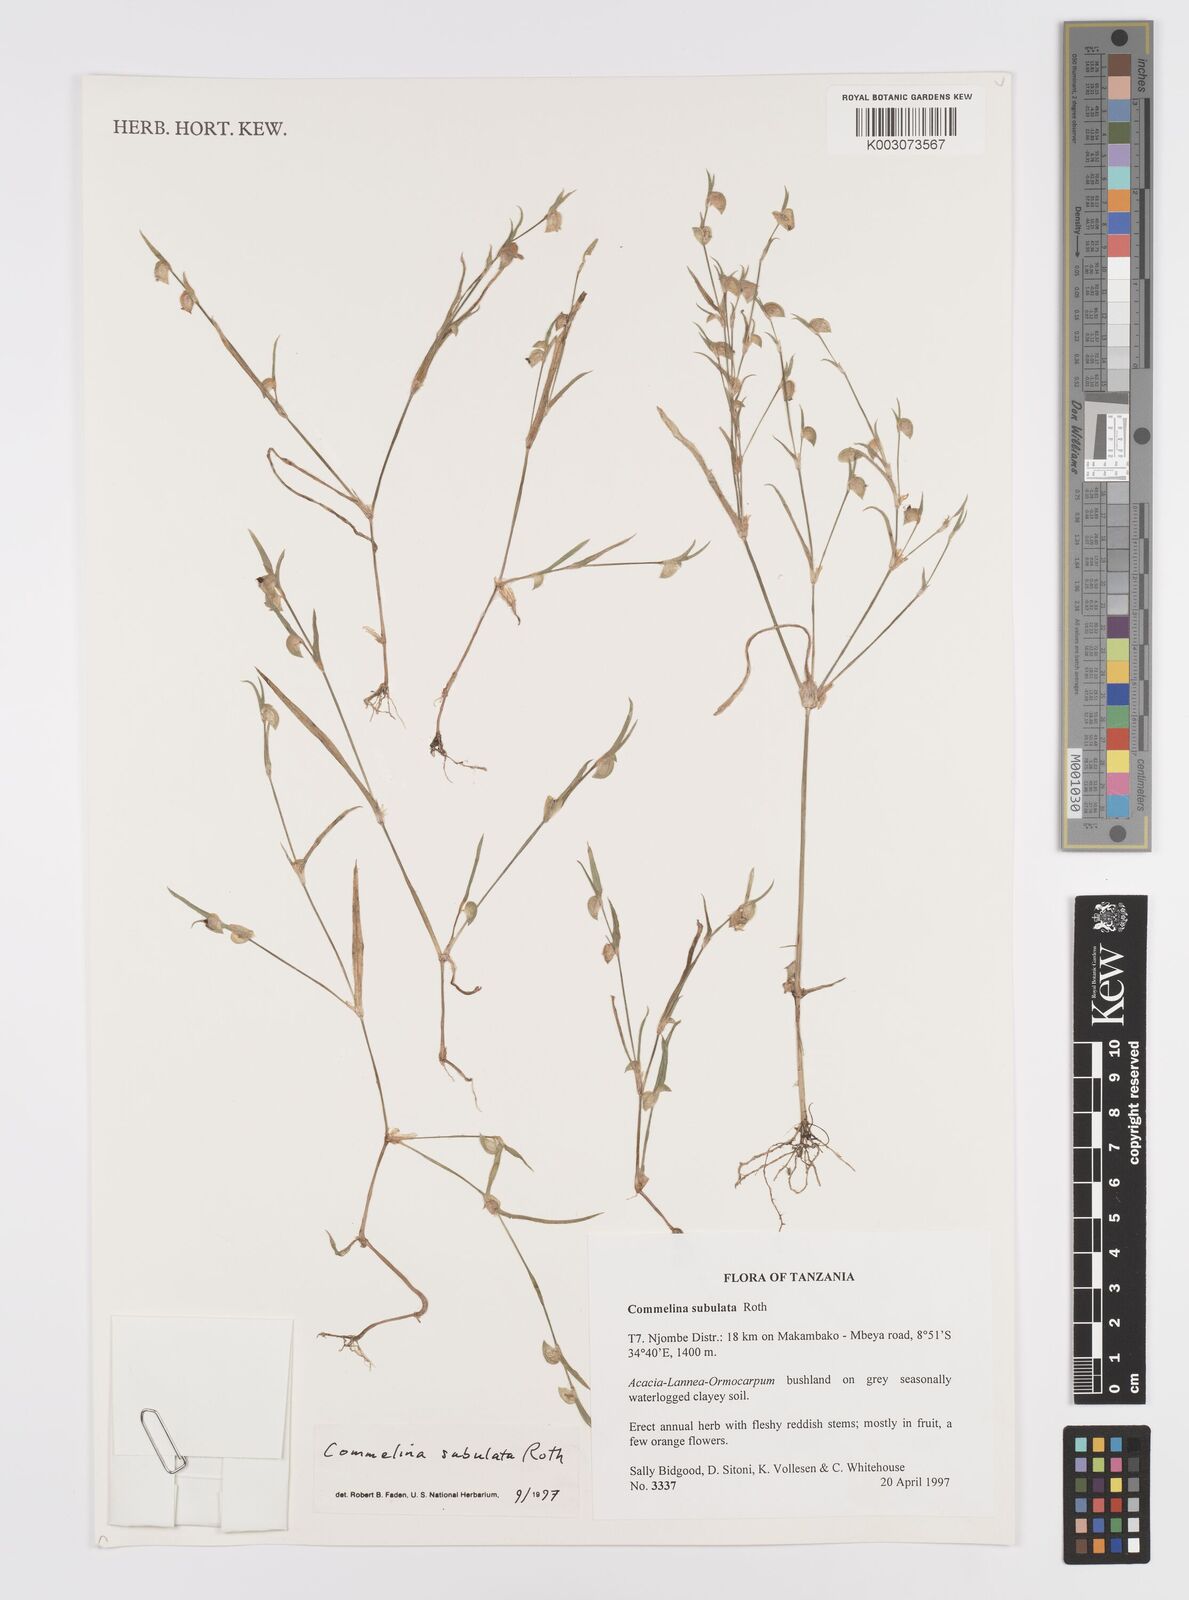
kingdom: Plantae
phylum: Tracheophyta
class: Liliopsida
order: Commelinales
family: Commelinaceae
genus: Commelina
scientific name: Commelina subulata
